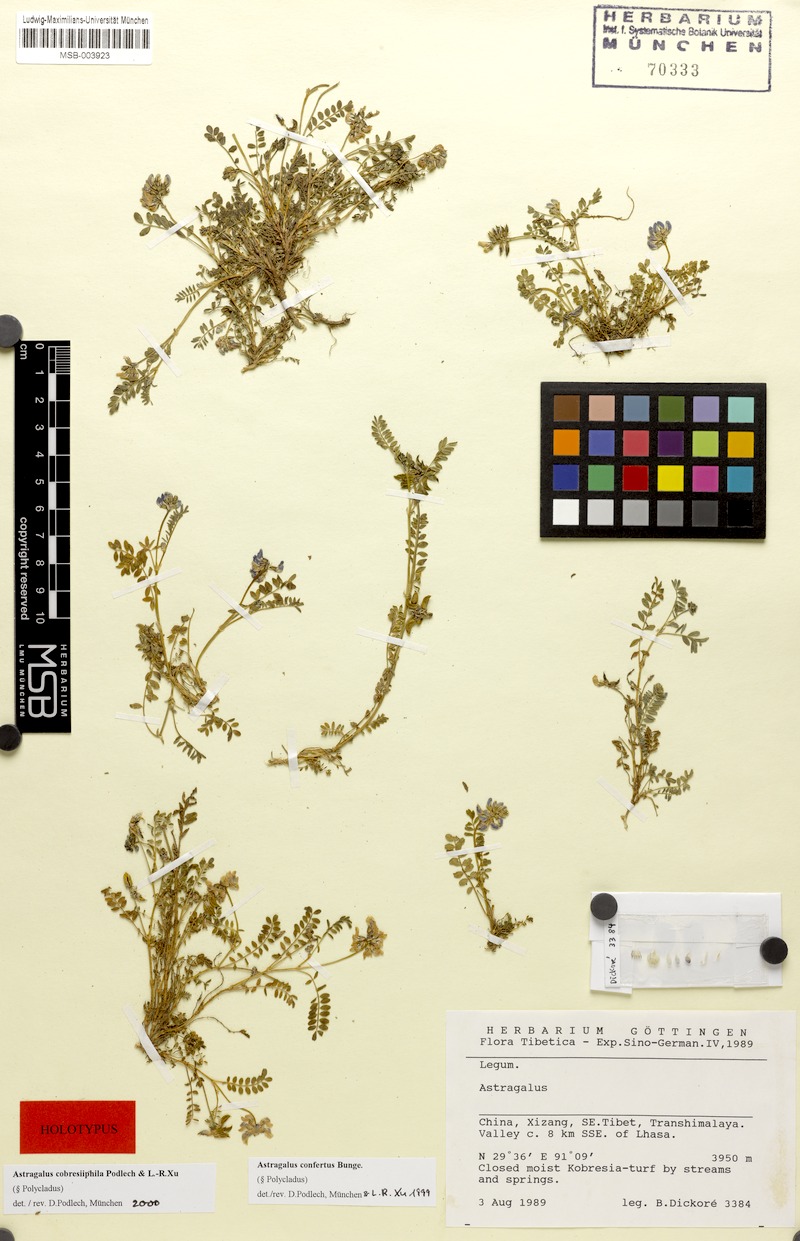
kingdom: Plantae
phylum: Tracheophyta
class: Magnoliopsida
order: Fabales
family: Fabaceae
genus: Astragalus
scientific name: Astragalus cobresiiphilus
